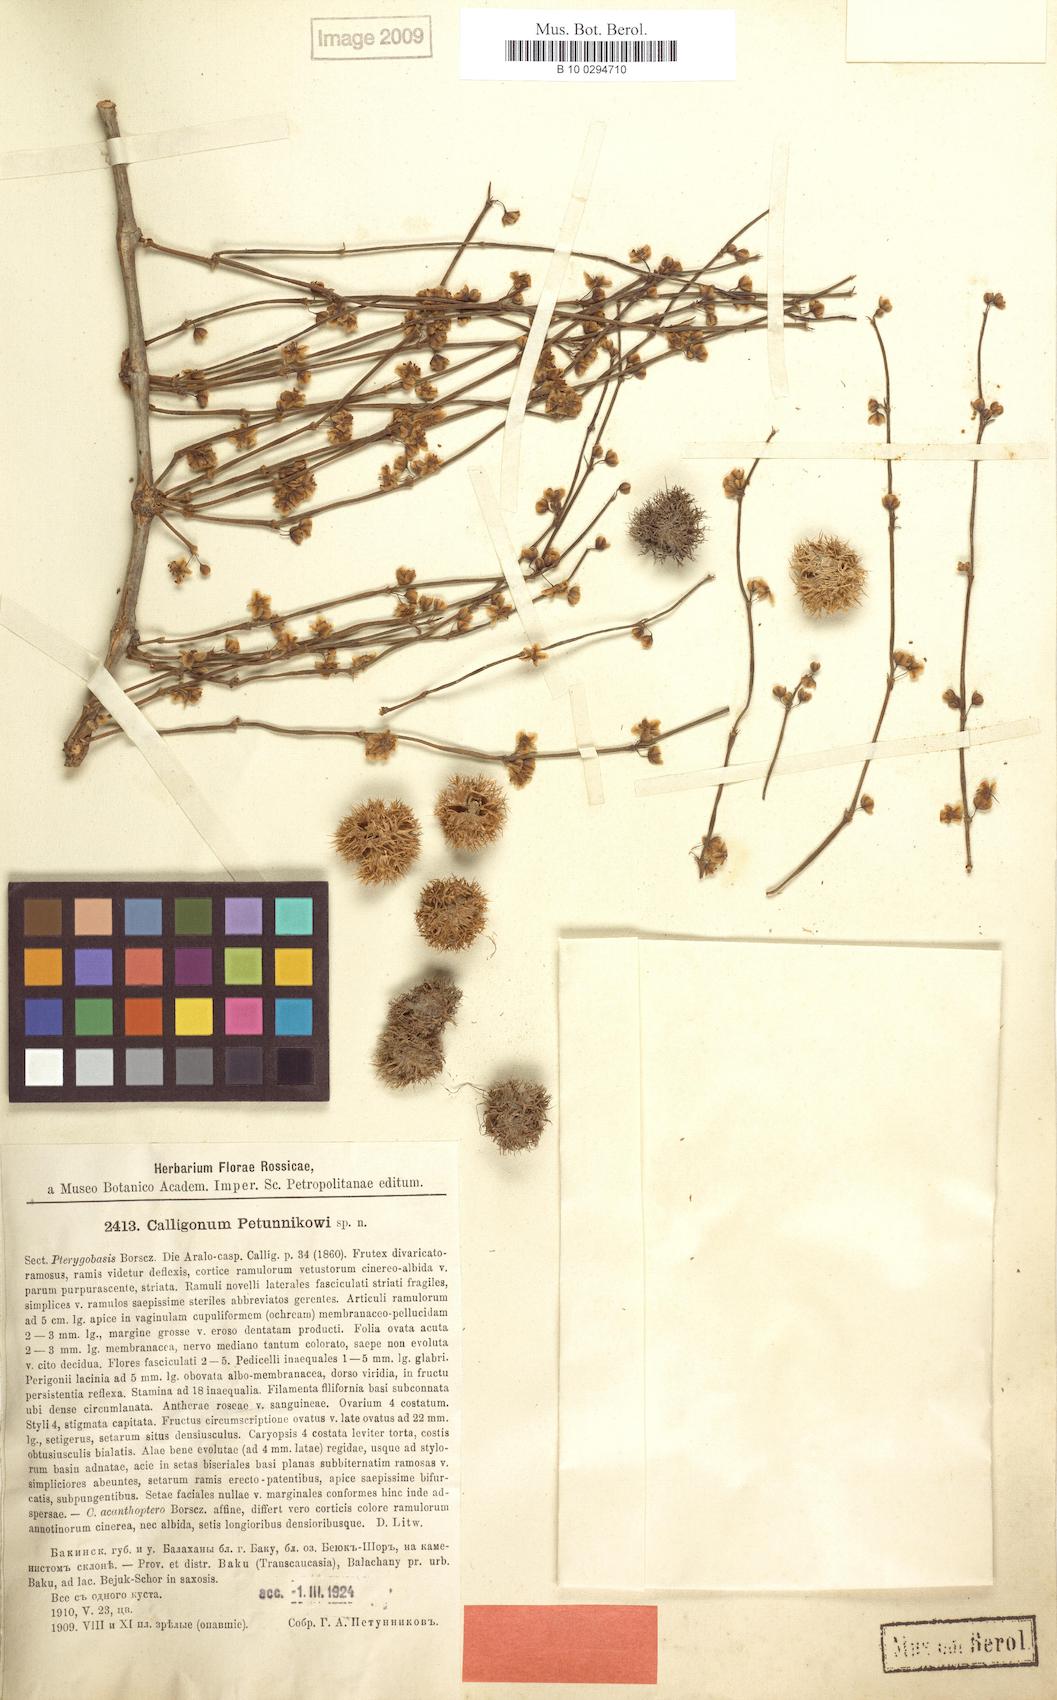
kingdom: Plantae
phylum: Tracheophyta
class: Magnoliopsida
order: Caryophyllales
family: Polygonaceae
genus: Calligonum
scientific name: Calligonum bakuense
